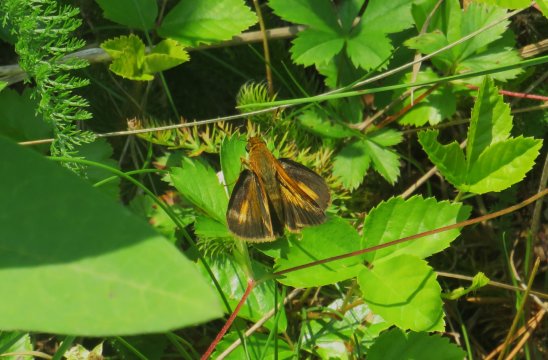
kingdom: Animalia
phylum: Arthropoda
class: Insecta
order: Lepidoptera
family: Hesperiidae
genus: Euphyes
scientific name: Euphyes dion
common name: Dion Skipper
